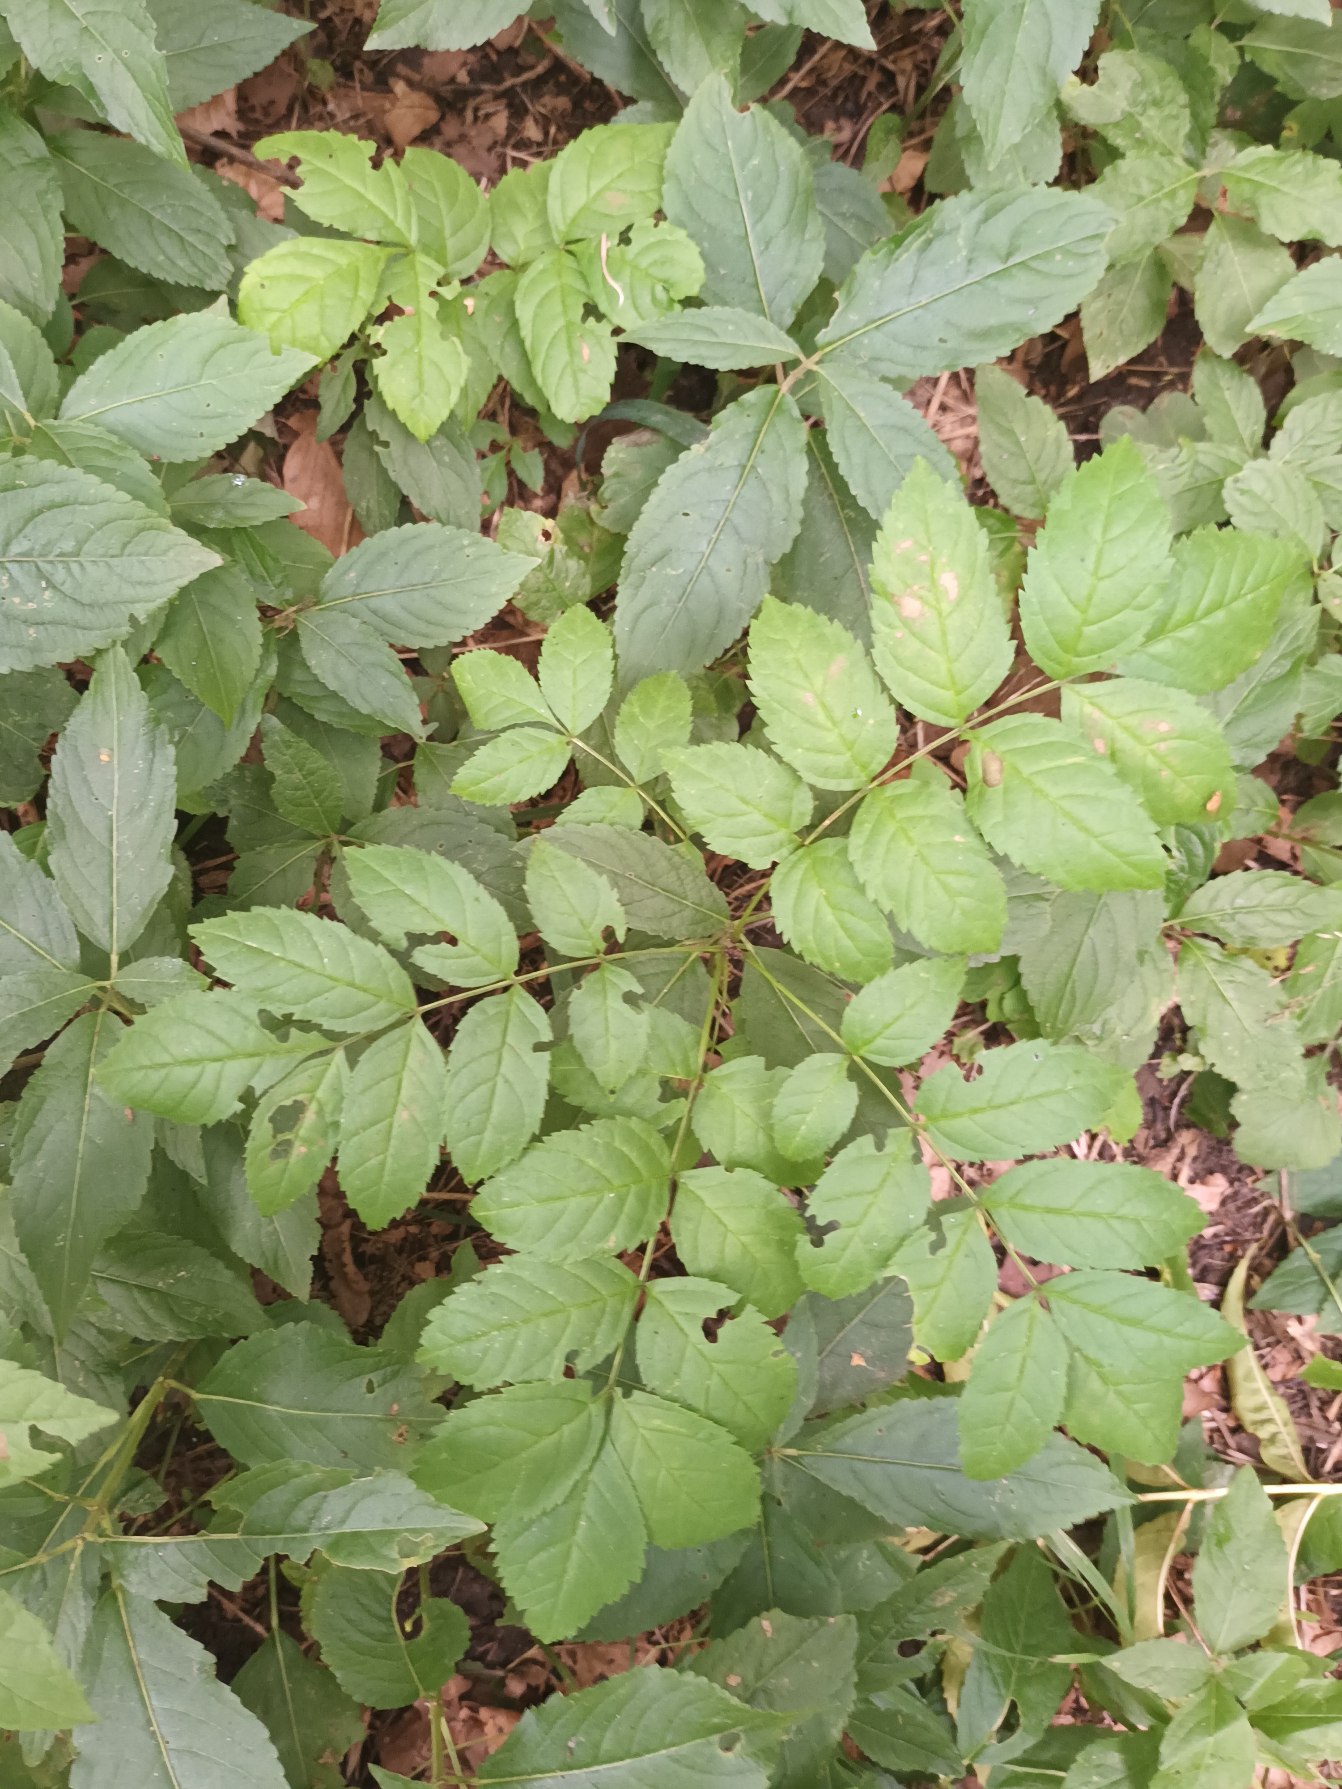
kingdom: Plantae
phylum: Tracheophyta
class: Magnoliopsida
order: Lamiales
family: Oleaceae
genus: Fraxinus
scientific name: Fraxinus excelsior
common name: Ask
